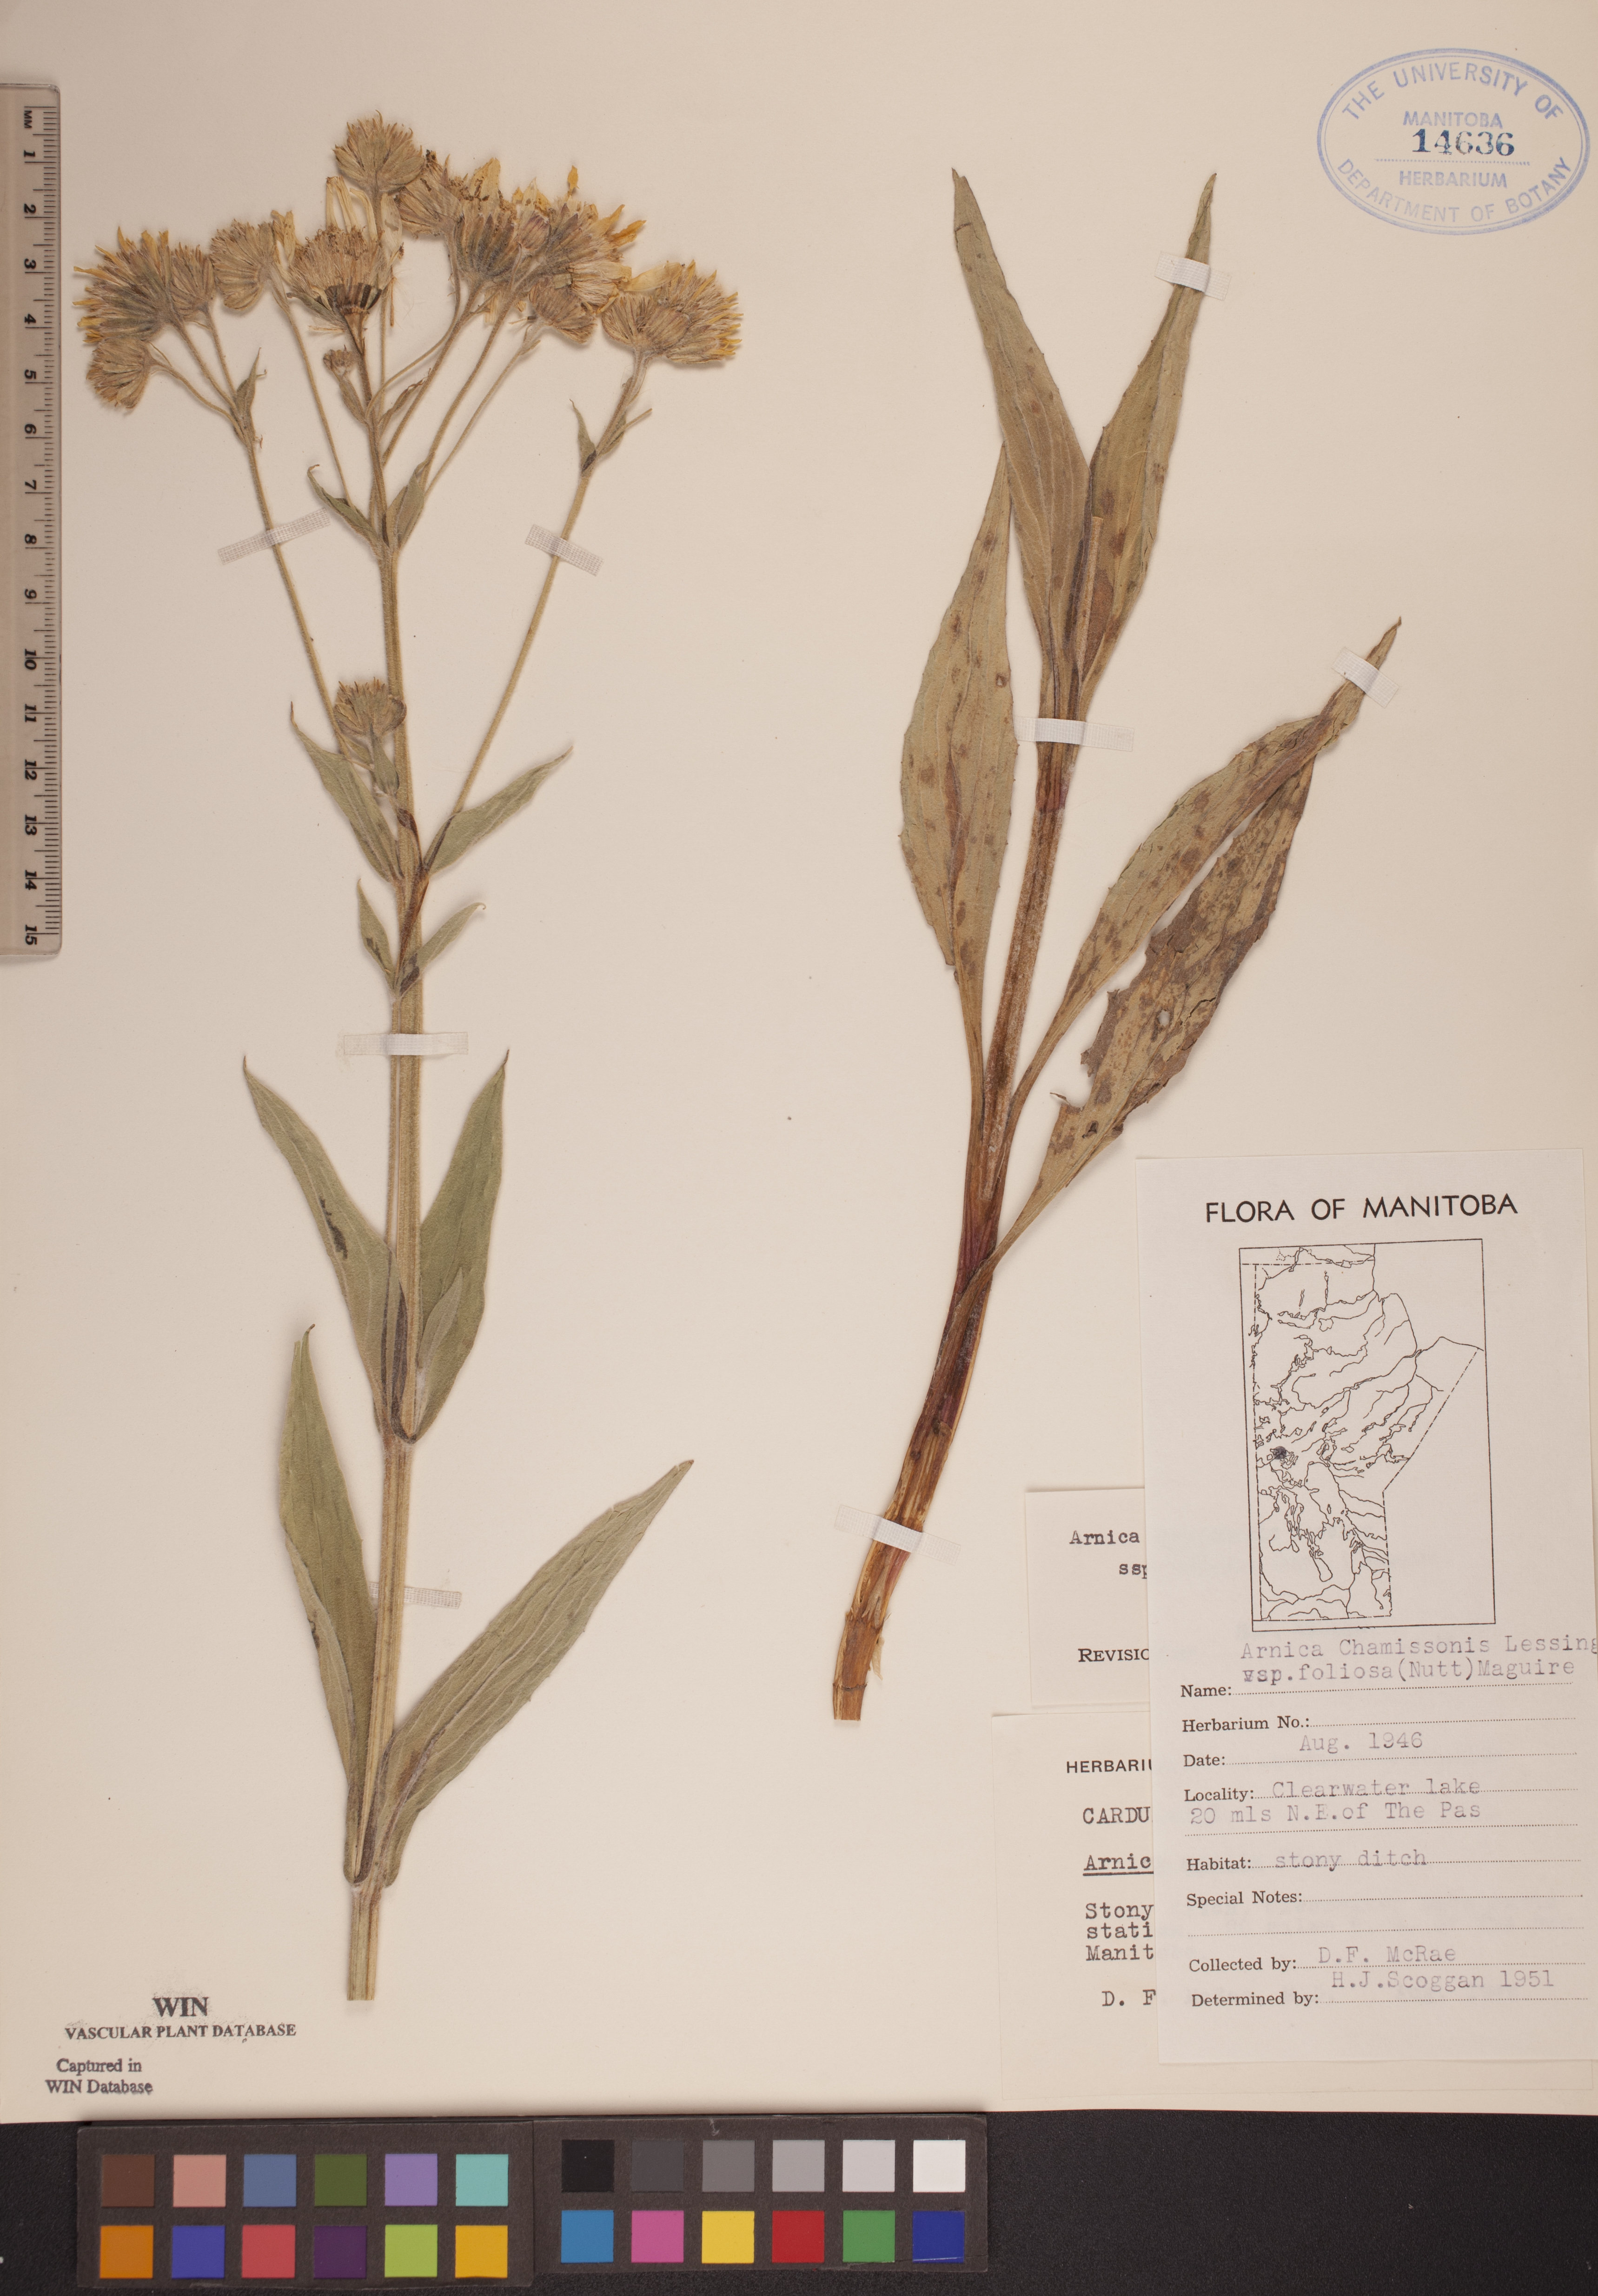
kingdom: Plantae
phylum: Tracheophyta
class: Magnoliopsida
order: Asterales
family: Asteraceae
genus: Arnica
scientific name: Arnica chamissonis
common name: Leafy arnica
